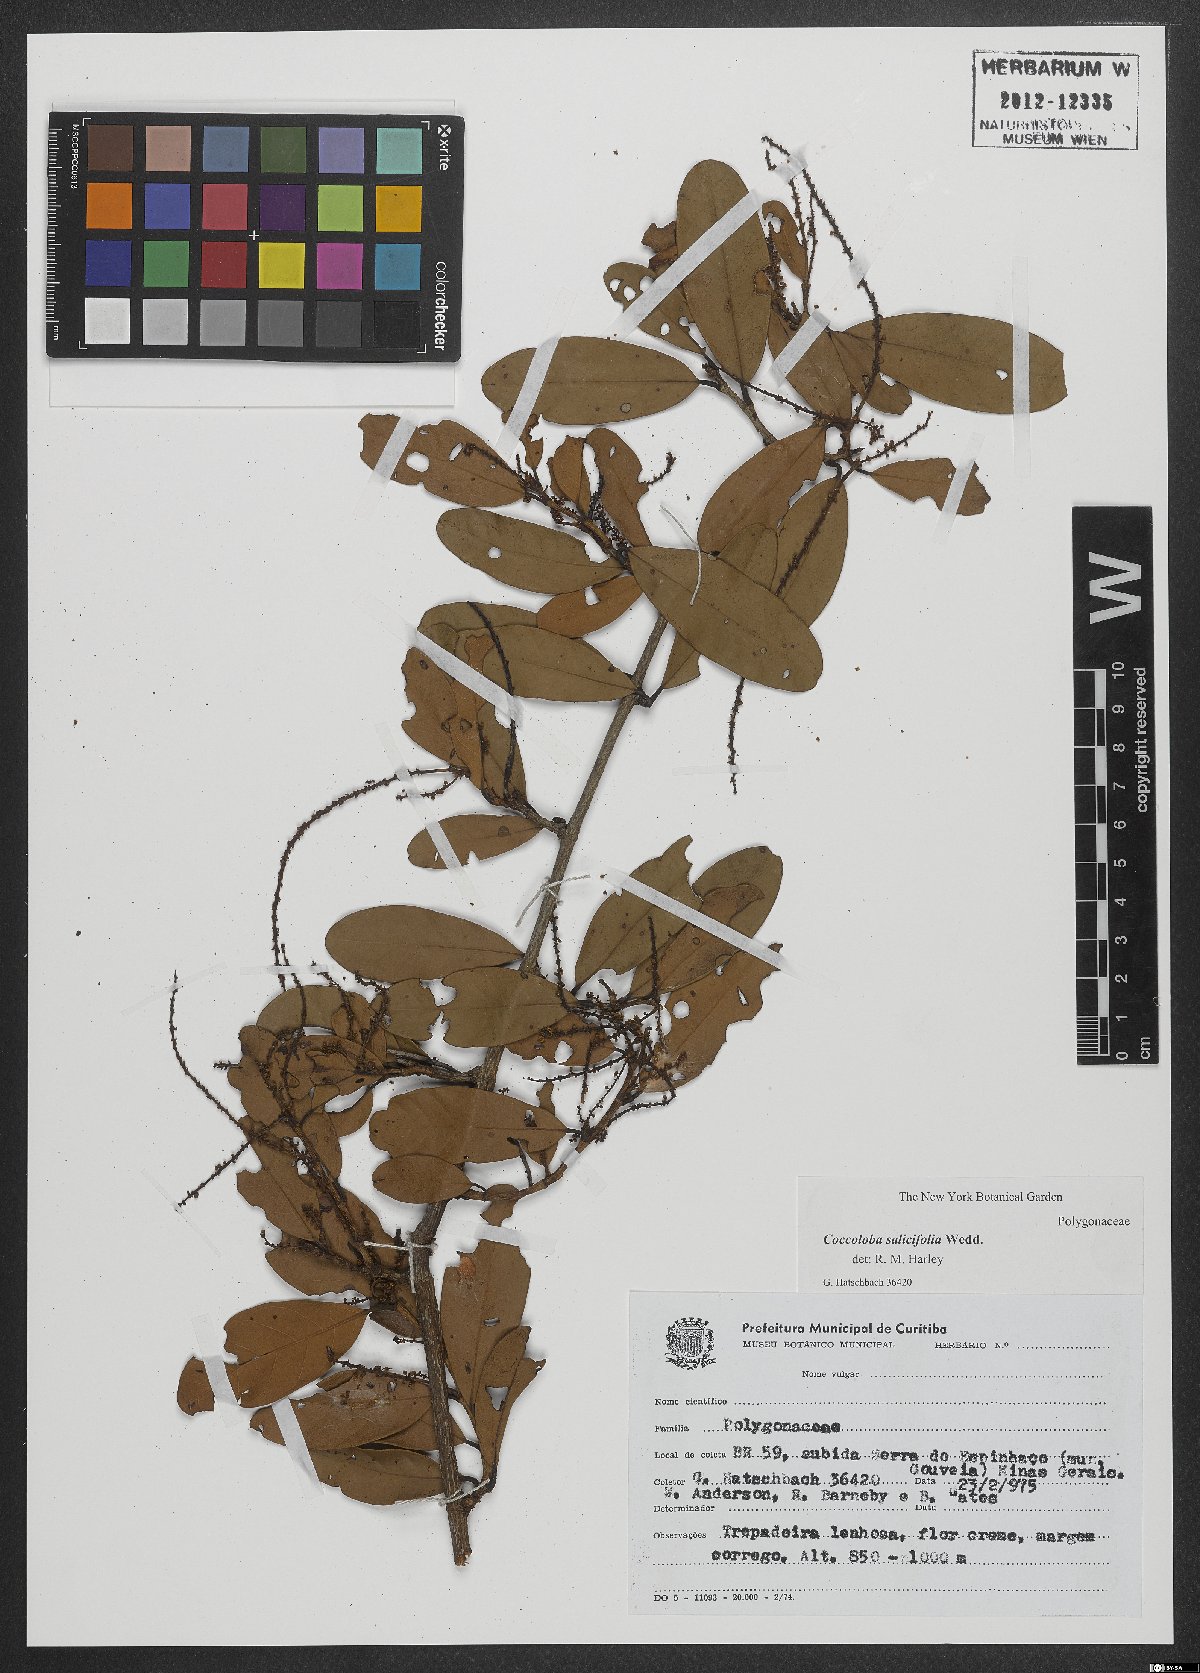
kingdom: Plantae
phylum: Tracheophyta
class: Magnoliopsida
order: Caryophyllales
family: Polygonaceae
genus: Coccoloba
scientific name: Coccoloba salicifolia
